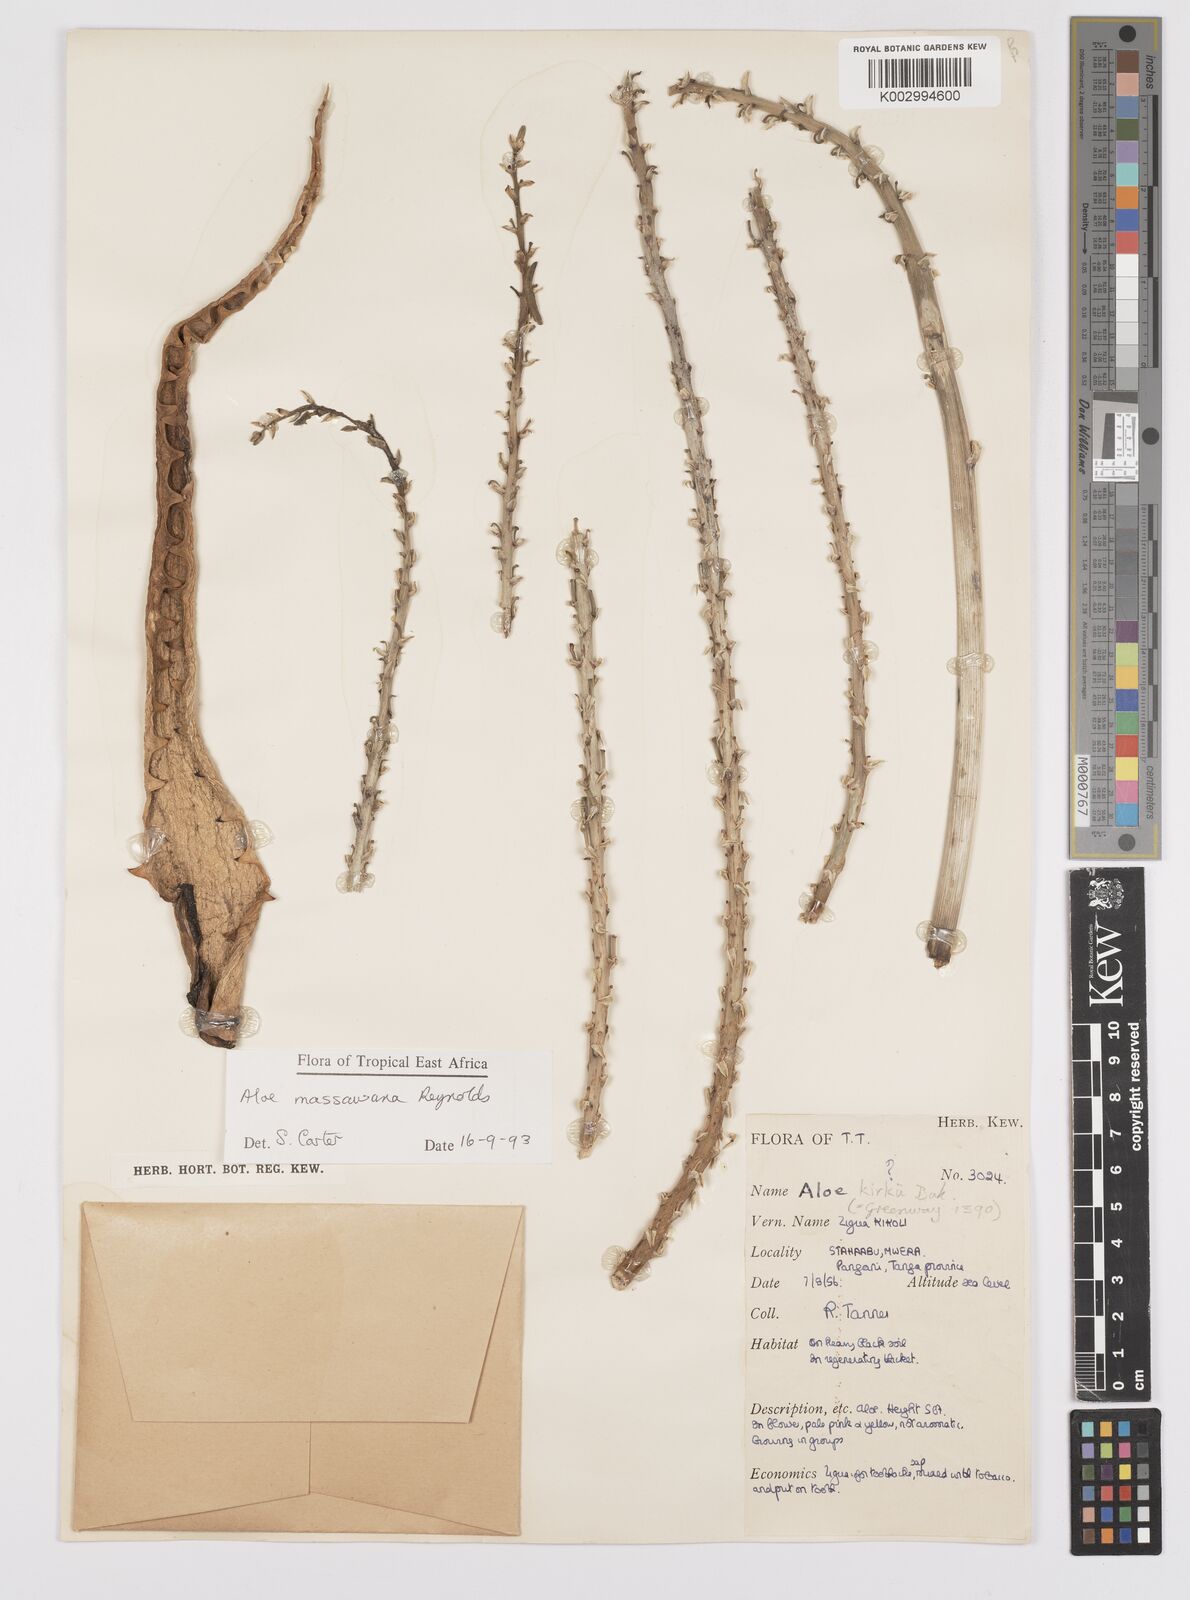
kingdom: Plantae
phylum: Tracheophyta
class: Liliopsida
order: Asparagales
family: Asphodelaceae
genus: Aloe
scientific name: Aloe massawana
